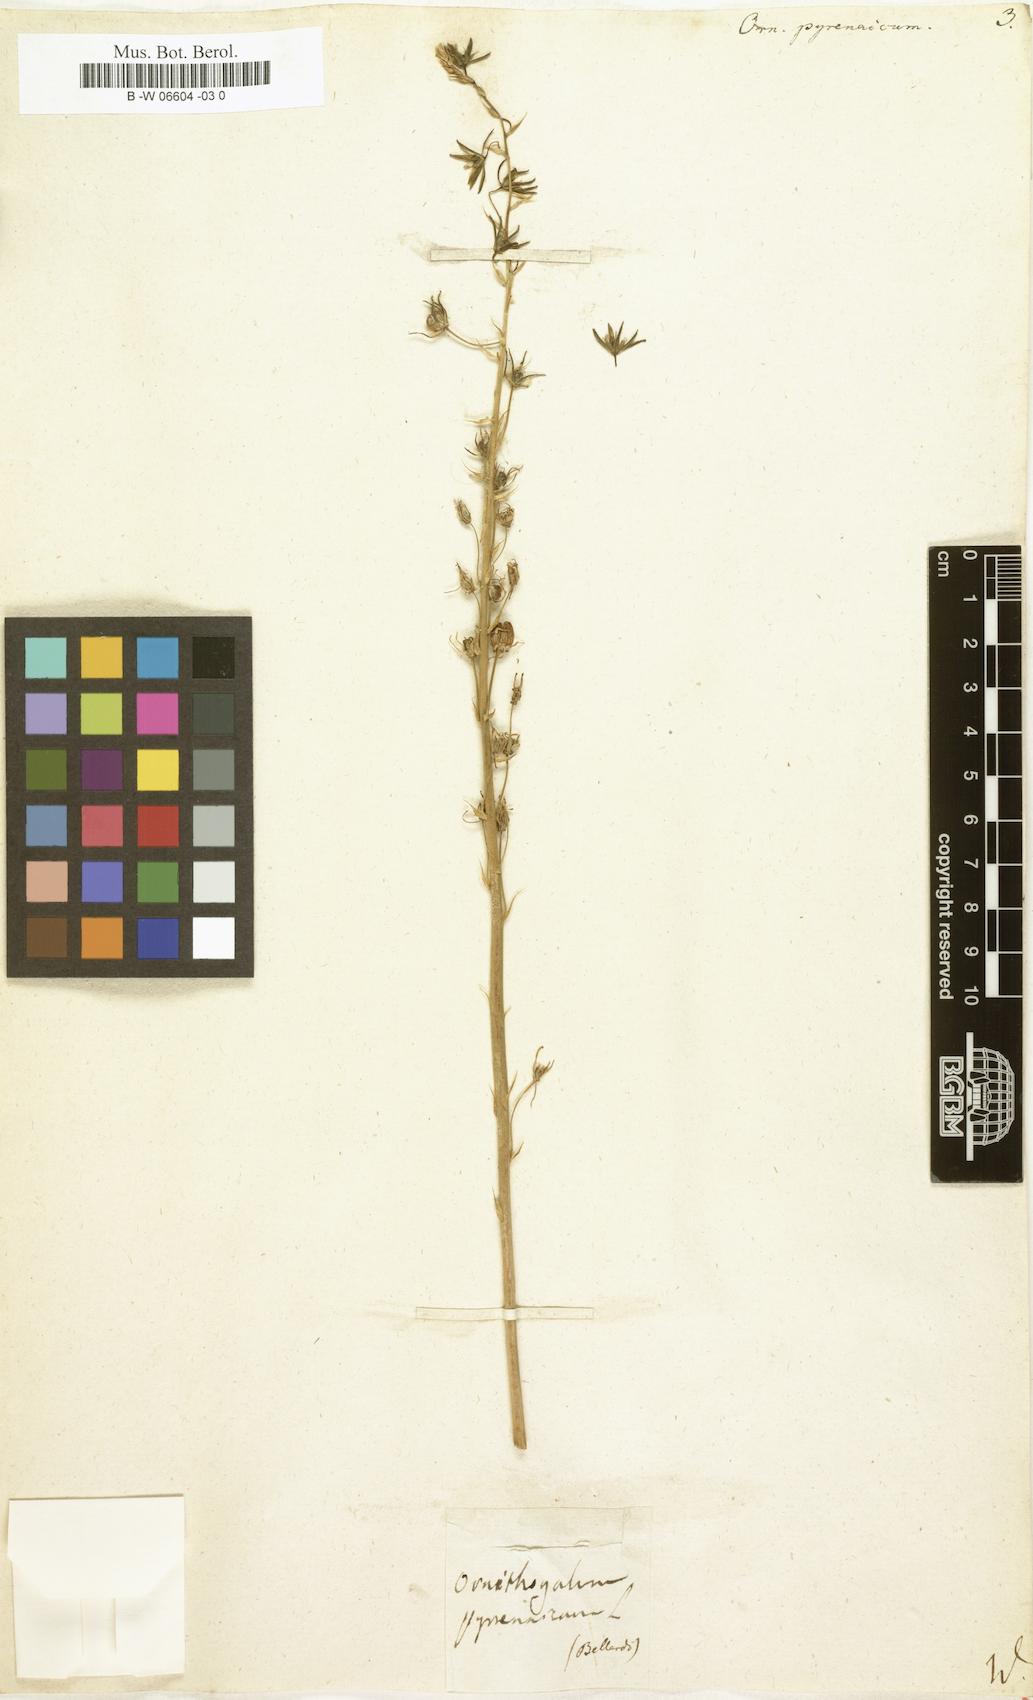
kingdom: Plantae
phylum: Tracheophyta
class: Liliopsida
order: Asparagales
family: Asparagaceae
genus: Ornithogalum
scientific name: Ornithogalum pyrenaicum
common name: Spiked star-of-bethlehem
